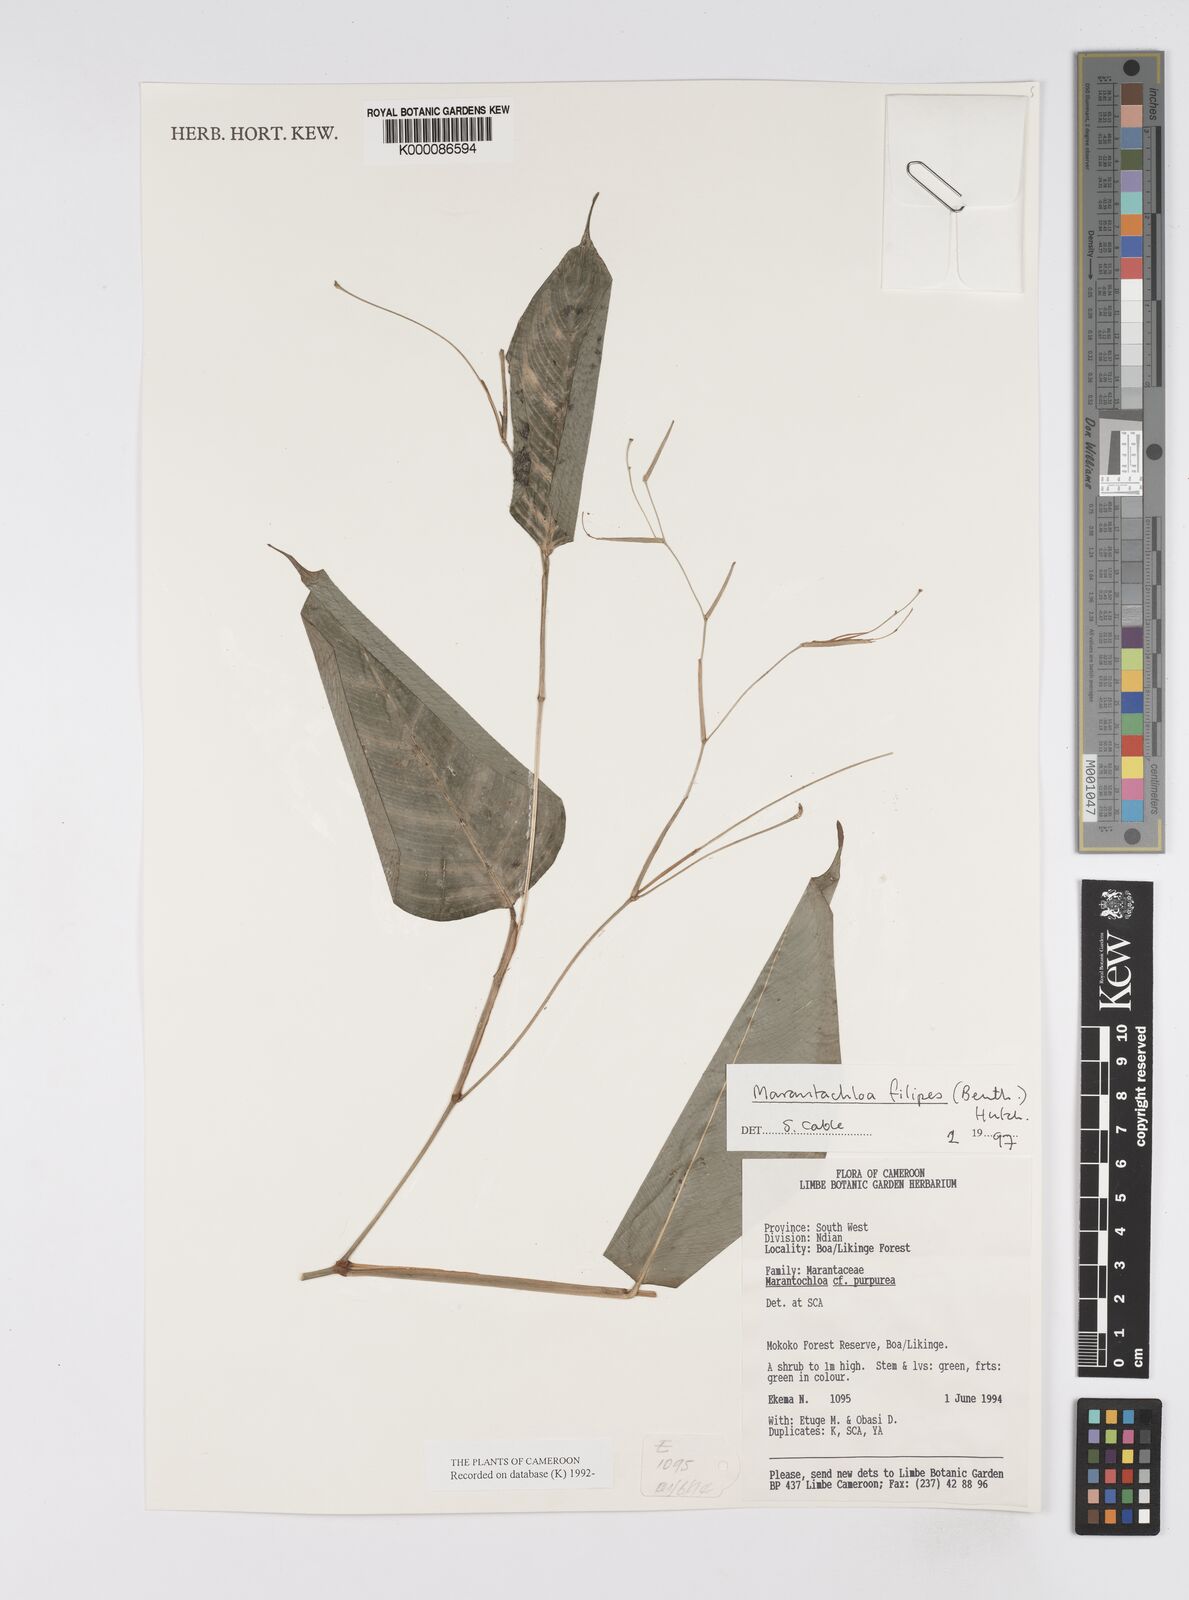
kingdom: Plantae
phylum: Tracheophyta
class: Liliopsida
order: Zingiberales
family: Marantaceae
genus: Marantochloa
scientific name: Marantochloa filipes
